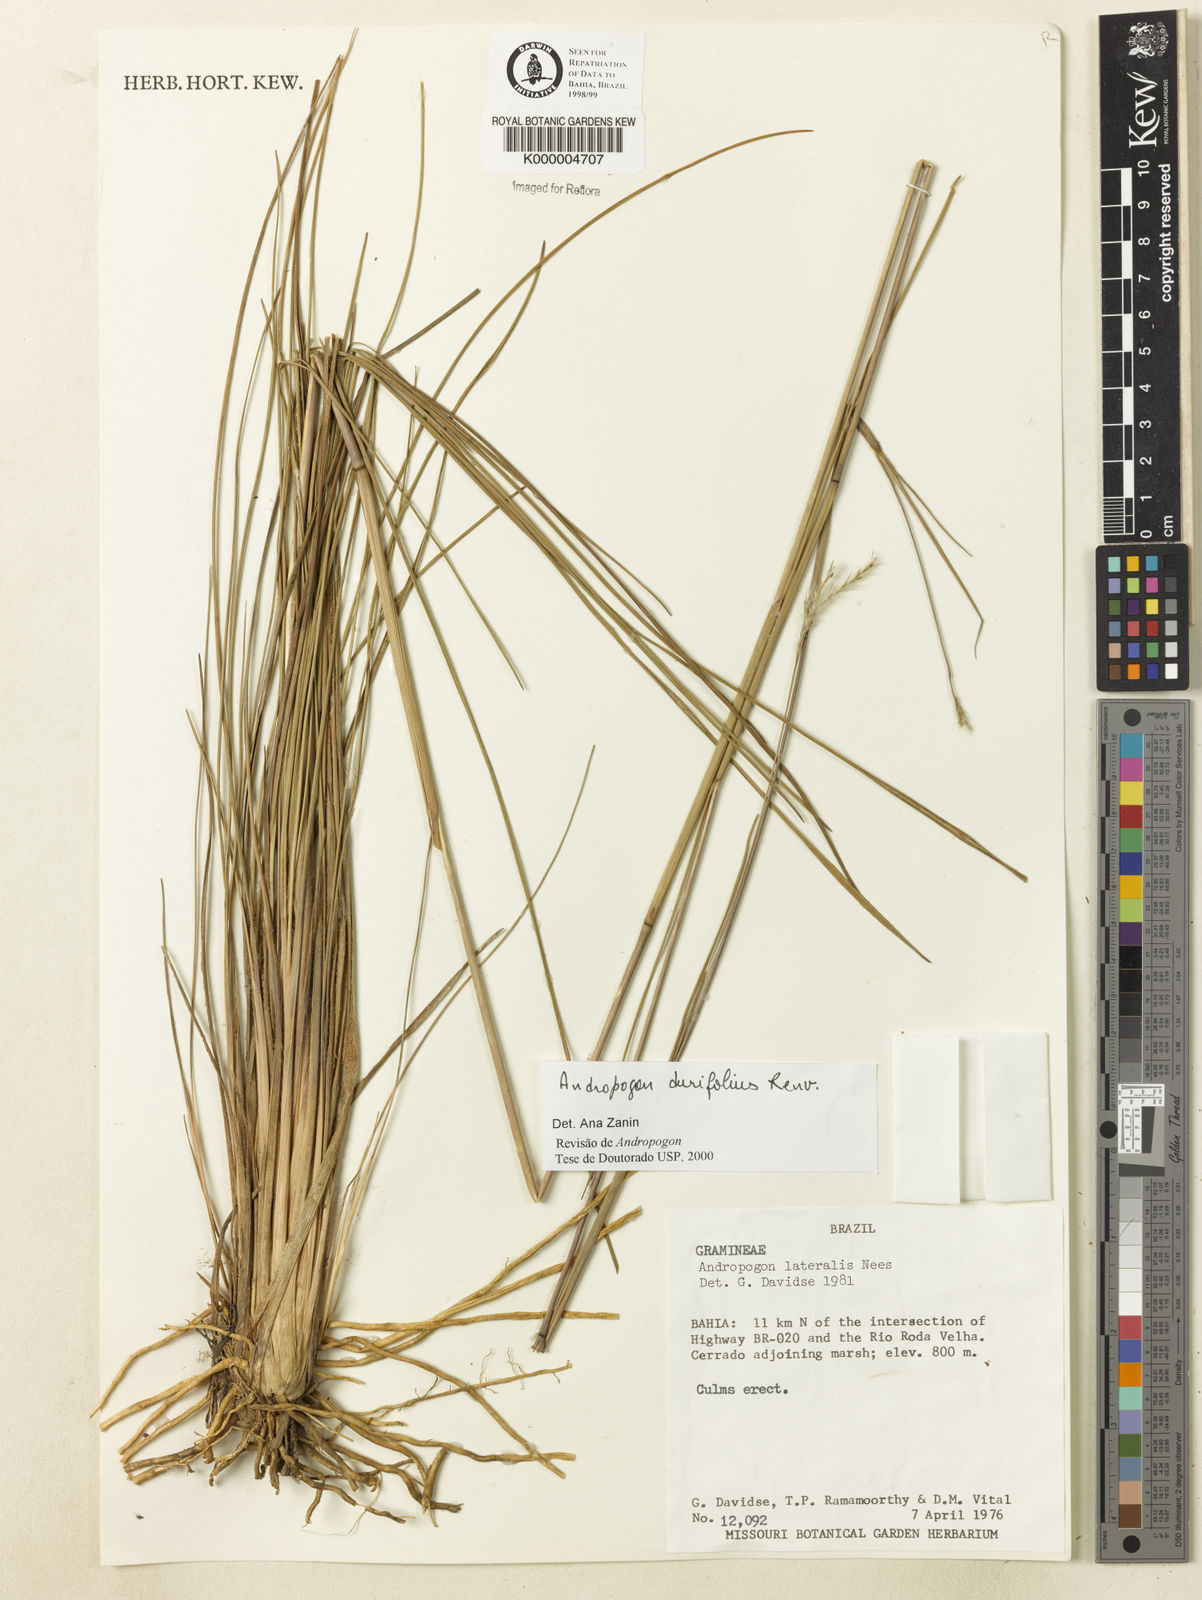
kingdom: Plantae
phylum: Tracheophyta
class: Liliopsida
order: Poales
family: Poaceae
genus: Andropogon
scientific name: Andropogon durifolius
